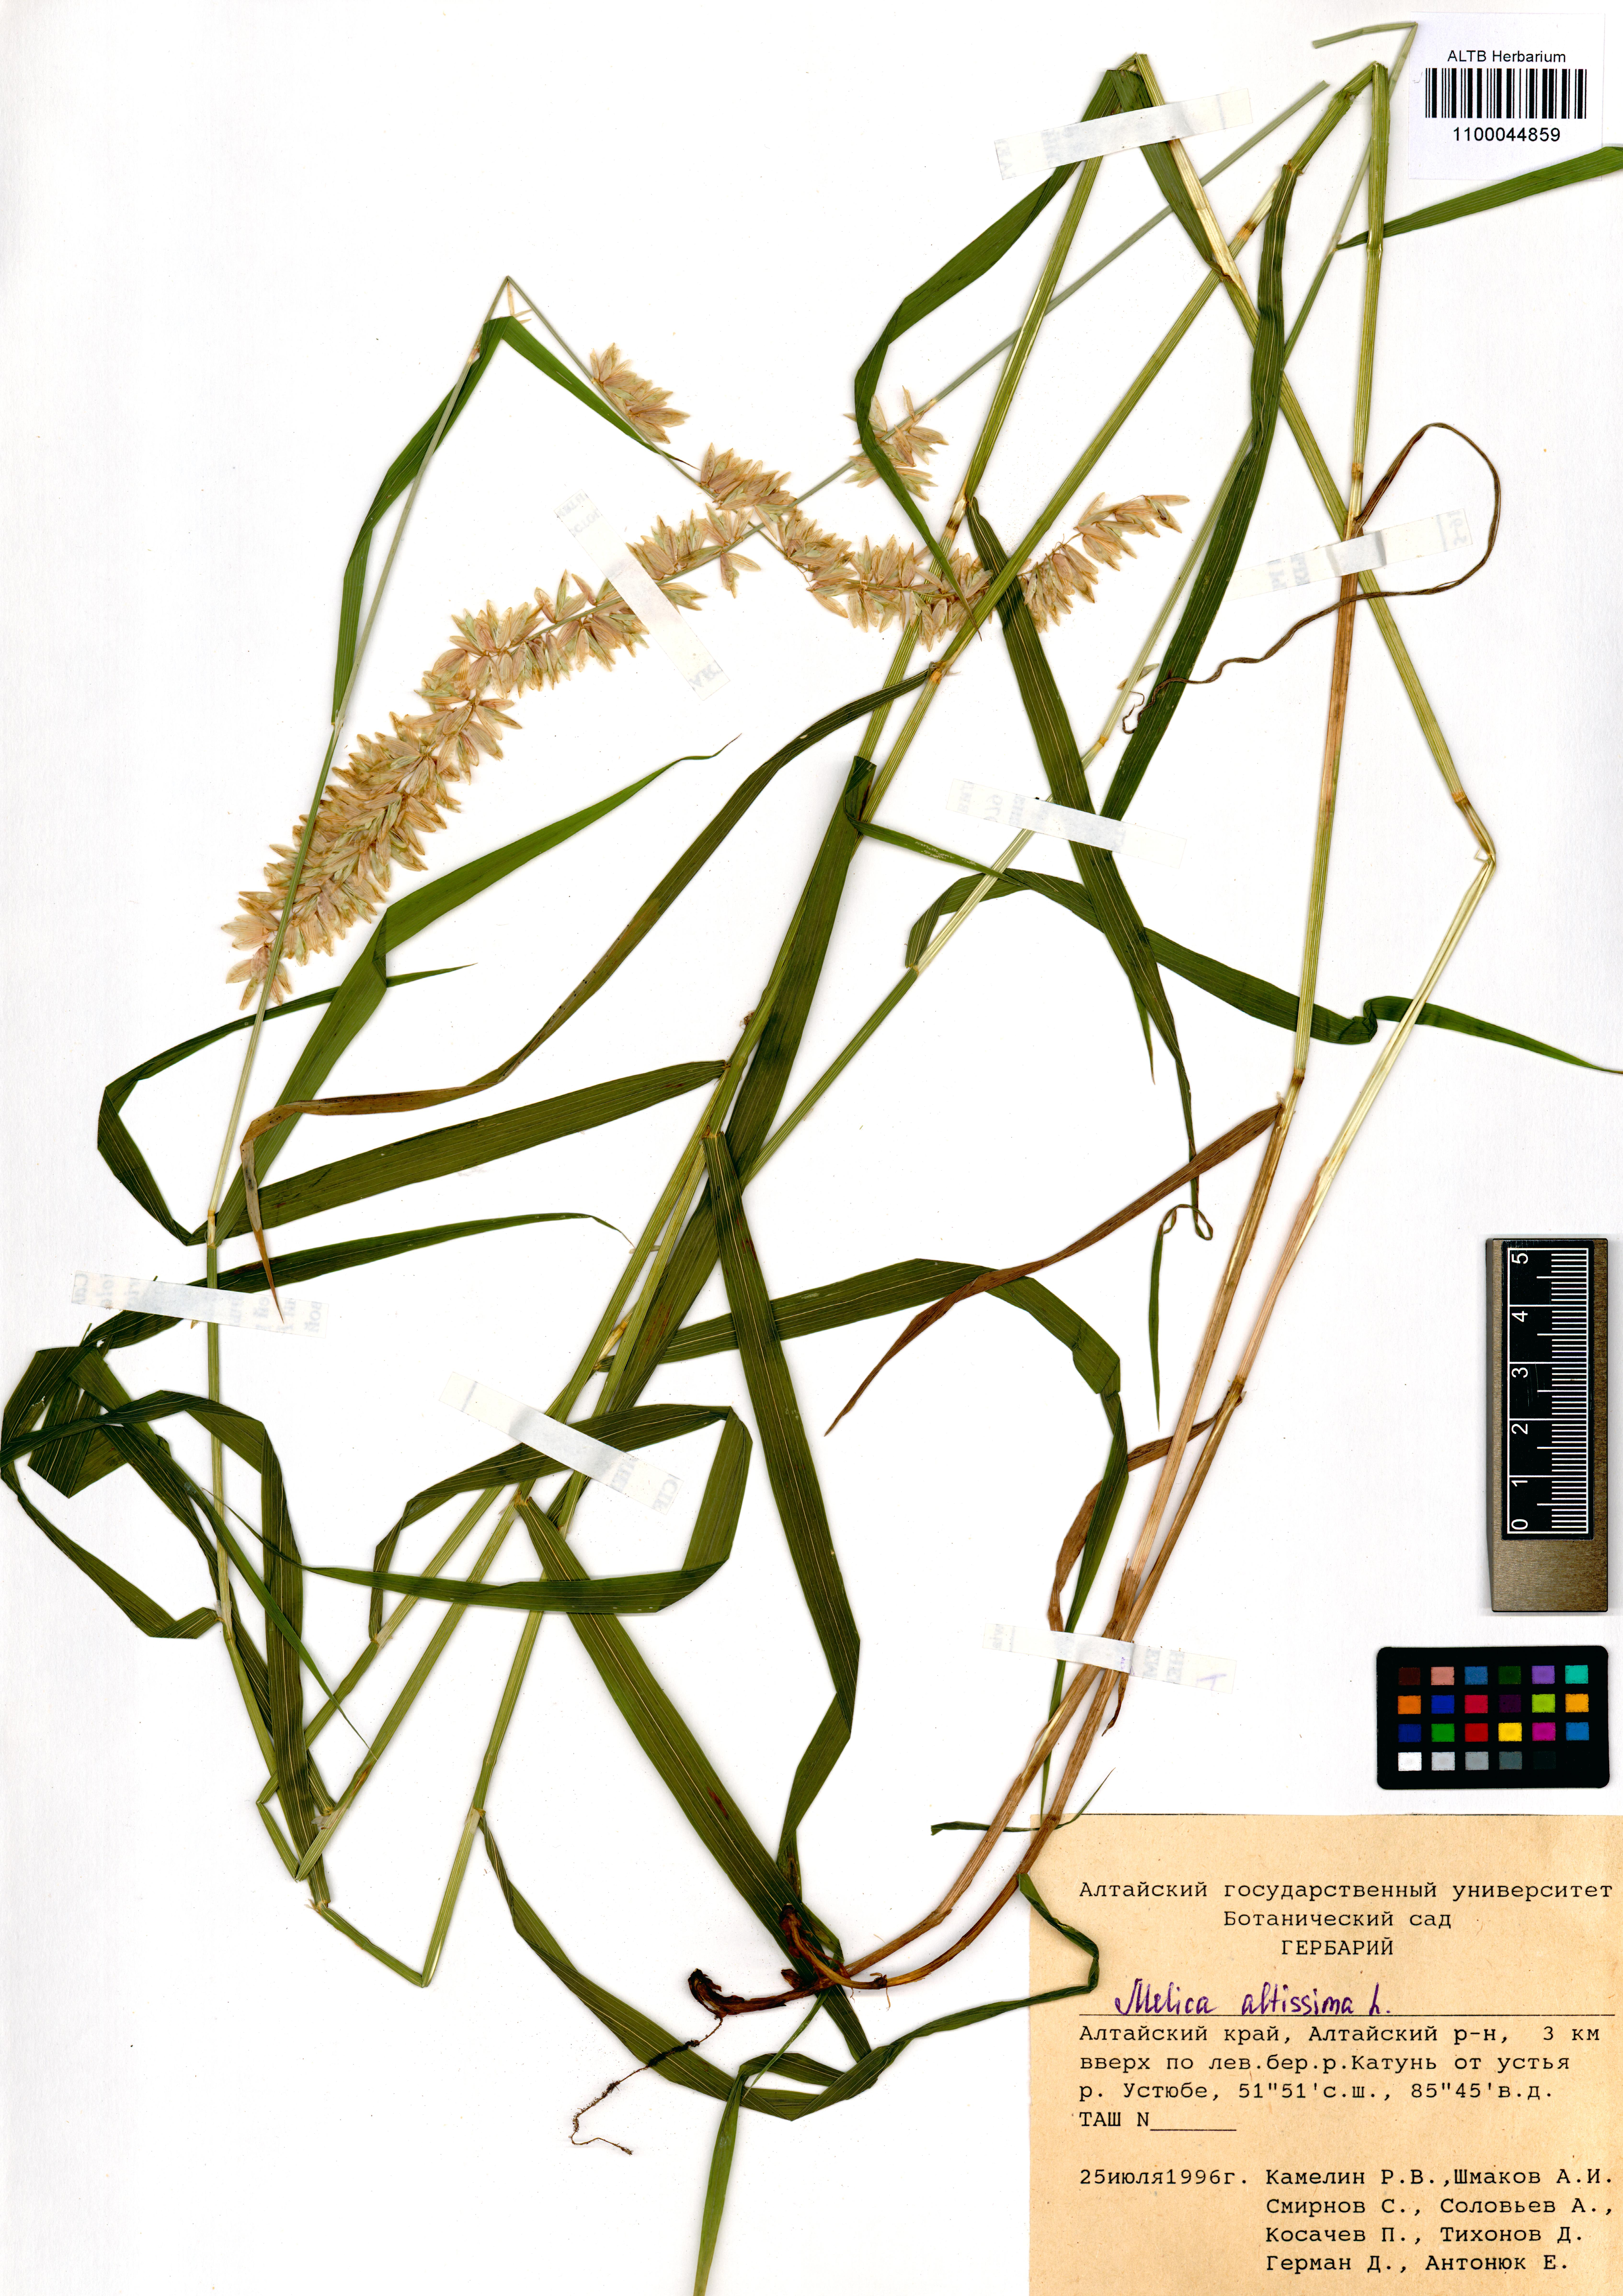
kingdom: Plantae
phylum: Tracheophyta
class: Liliopsida
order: Poales
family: Poaceae
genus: Melica
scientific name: Melica altissima
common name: Siberian melicgrass
